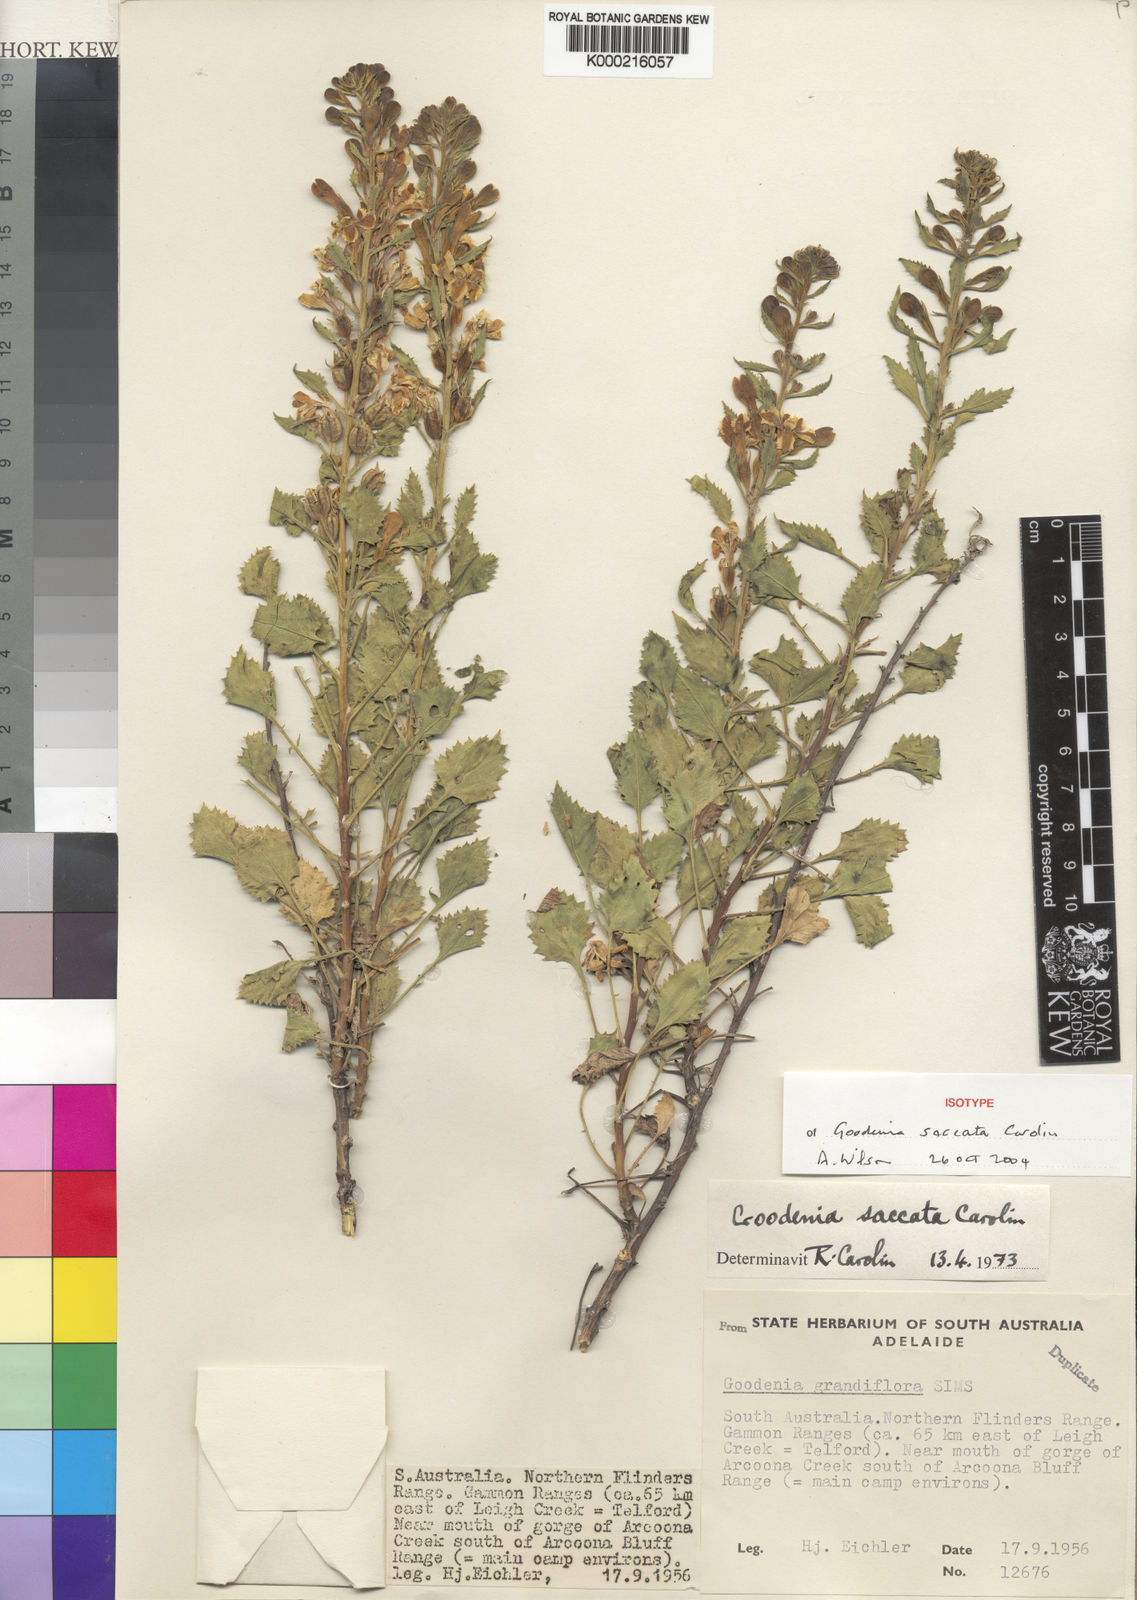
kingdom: Plantae
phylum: Tracheophyta
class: Magnoliopsida
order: Asterales
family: Goodeniaceae
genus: Goodenia
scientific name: Goodenia saccata
